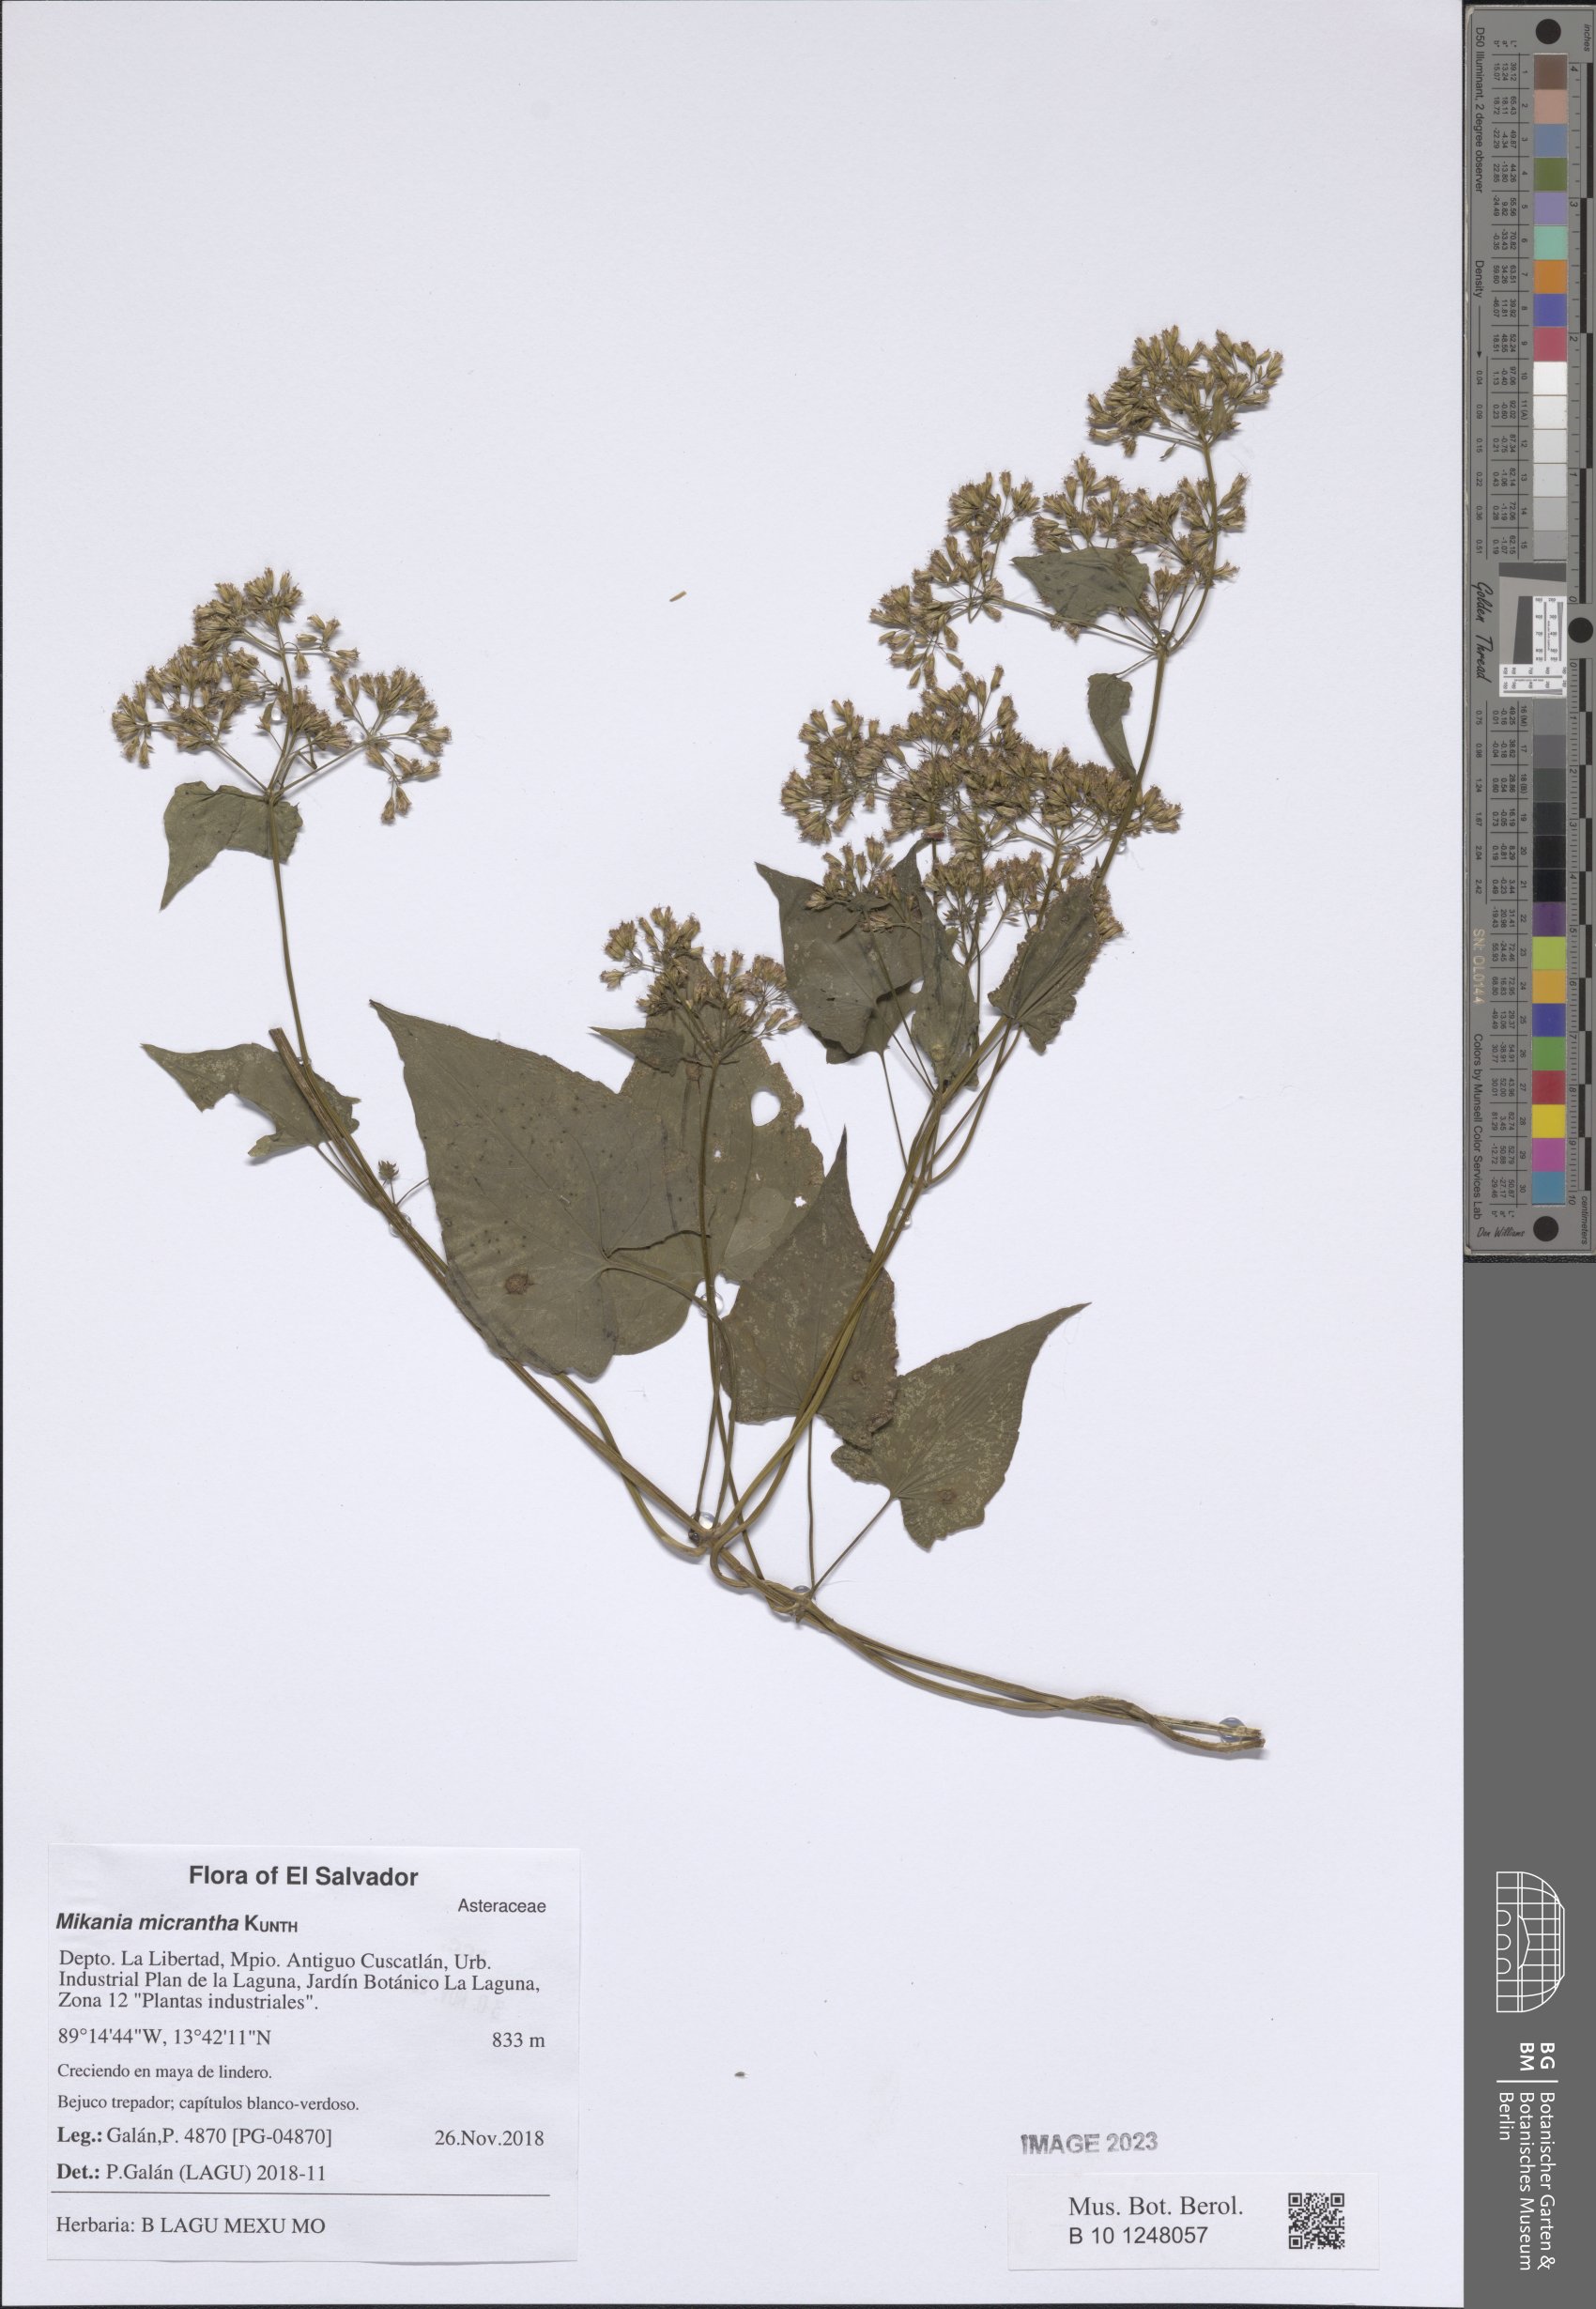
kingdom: Plantae
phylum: Tracheophyta
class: Magnoliopsida
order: Asterales
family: Asteraceae
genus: Mikania
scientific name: Mikania micrantha
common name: Mile-a-minute
